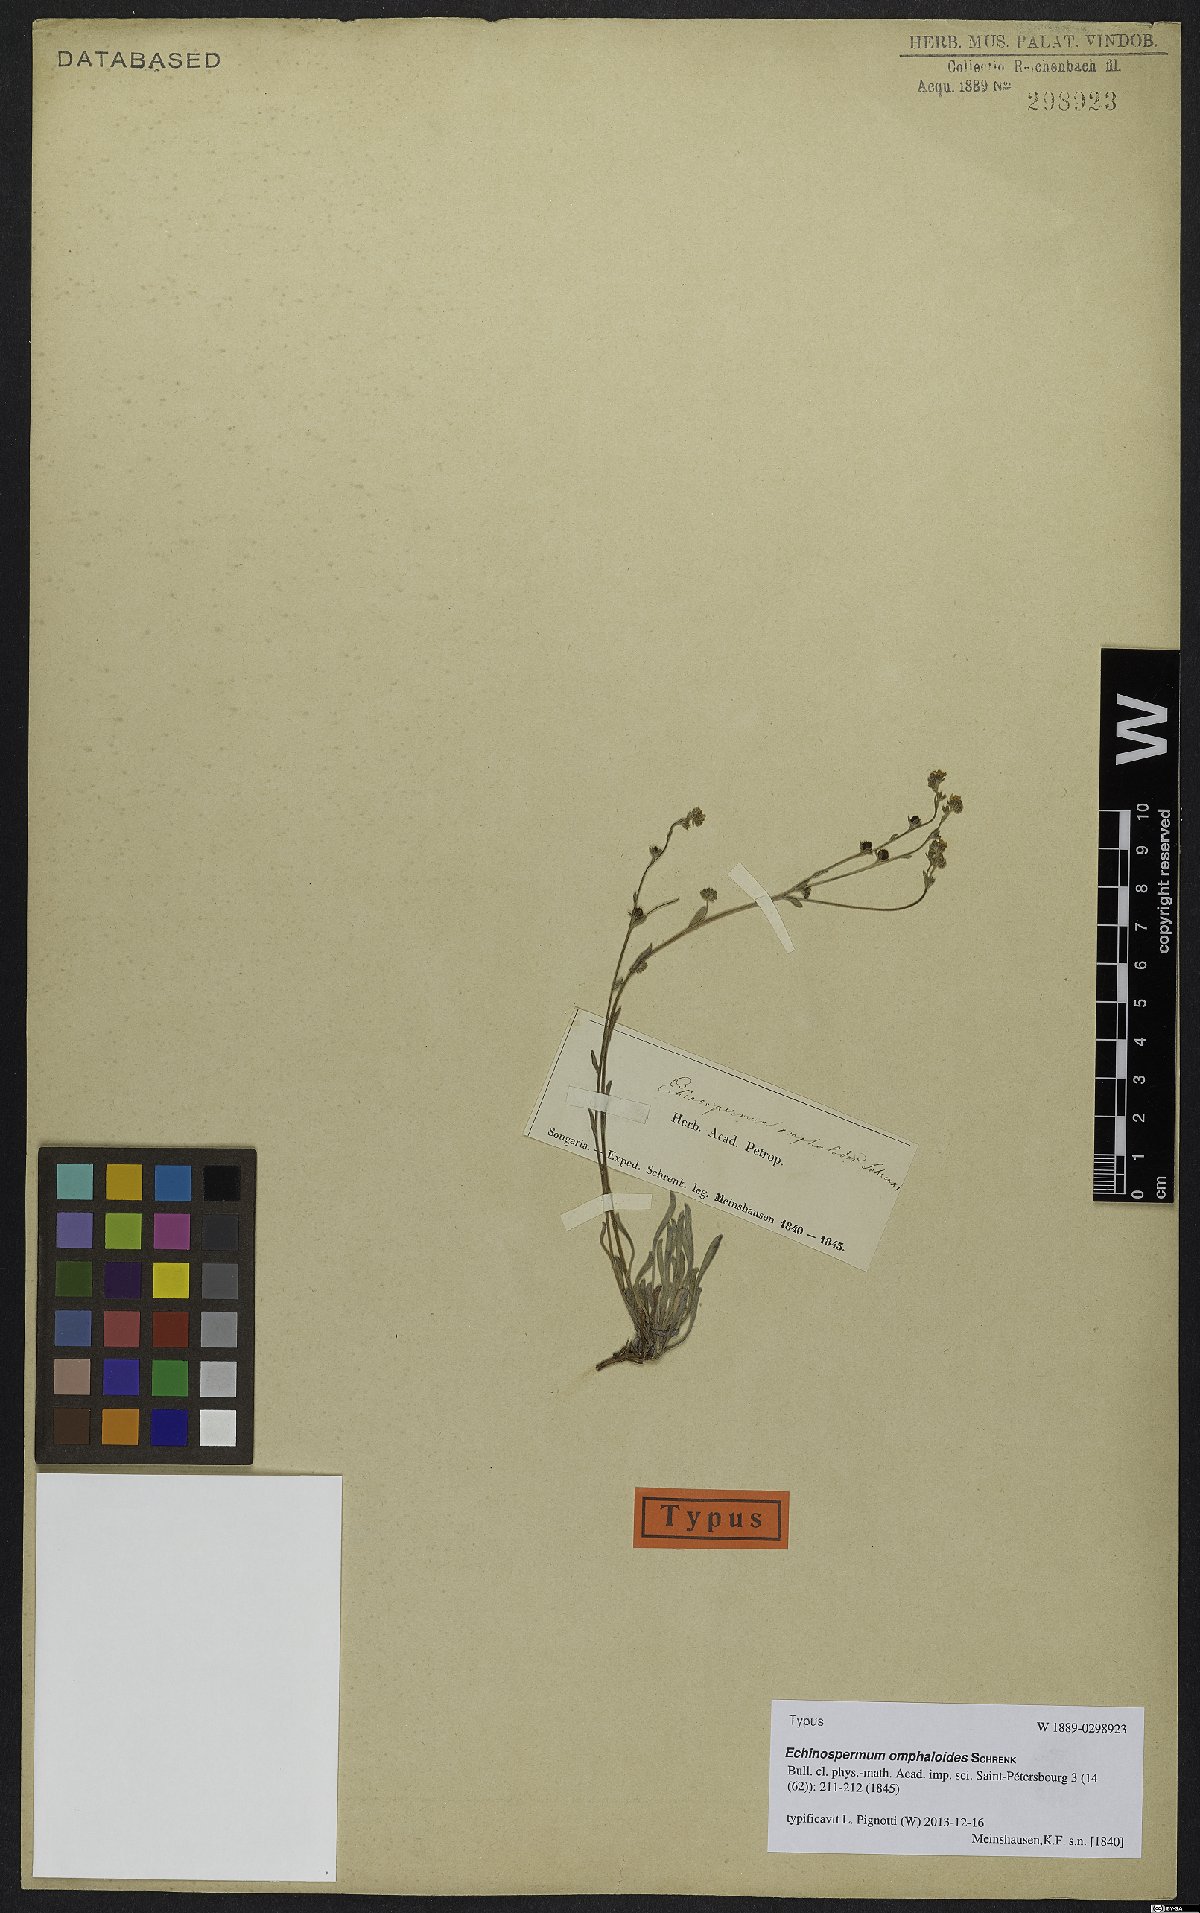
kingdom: Plantae
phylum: Tracheophyta
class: Magnoliopsida
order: Boraginales
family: Boraginaceae
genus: Lepechiniella
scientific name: Lepechiniella omphaloides
